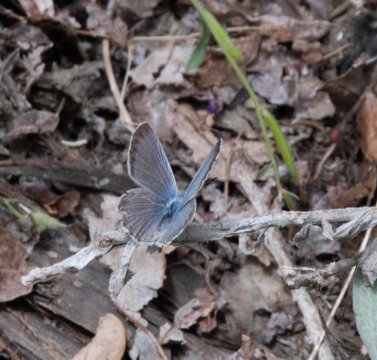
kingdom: Animalia
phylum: Arthropoda
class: Insecta
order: Lepidoptera
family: Lycaenidae
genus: Celastrina
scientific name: Celastrina ladon
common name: Echo Azure
